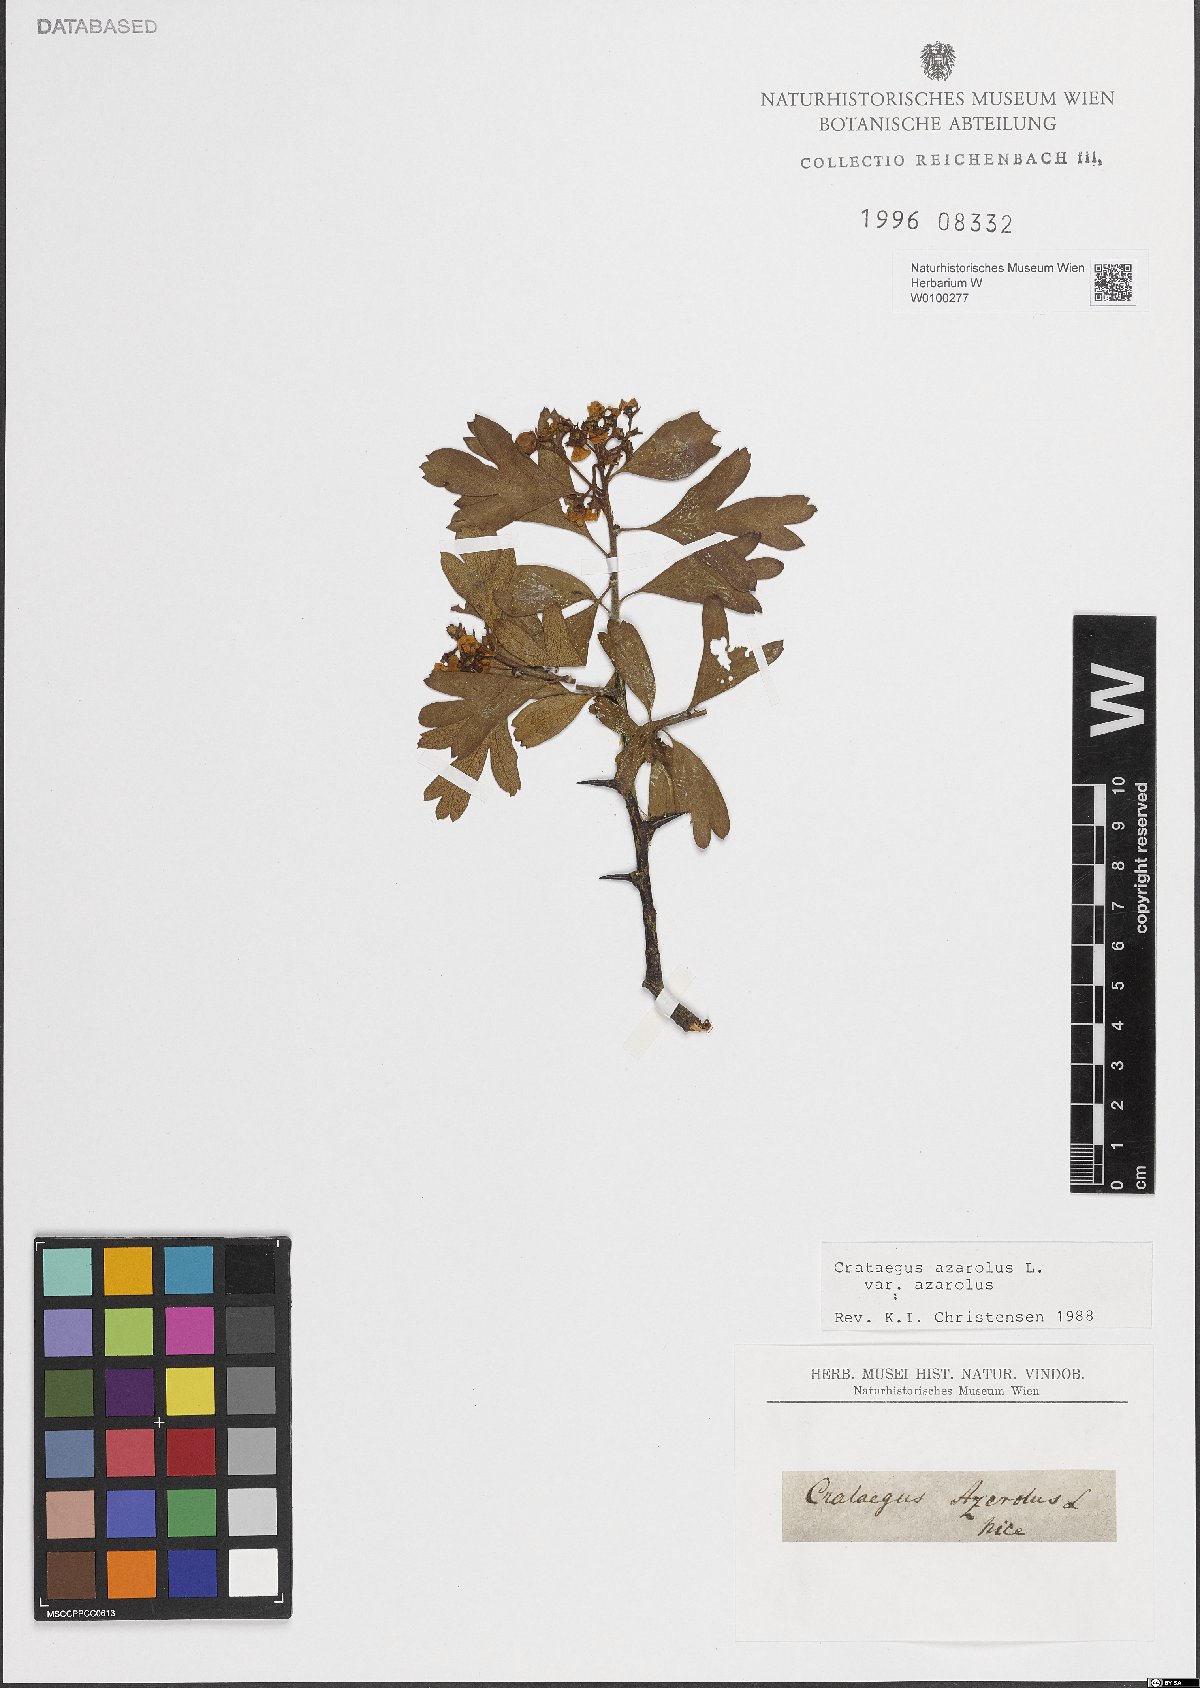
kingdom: Plantae
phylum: Tracheophyta
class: Magnoliopsida
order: Rosales
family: Rosaceae
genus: Crataegus
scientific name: Crataegus azarolus
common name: Azarole
